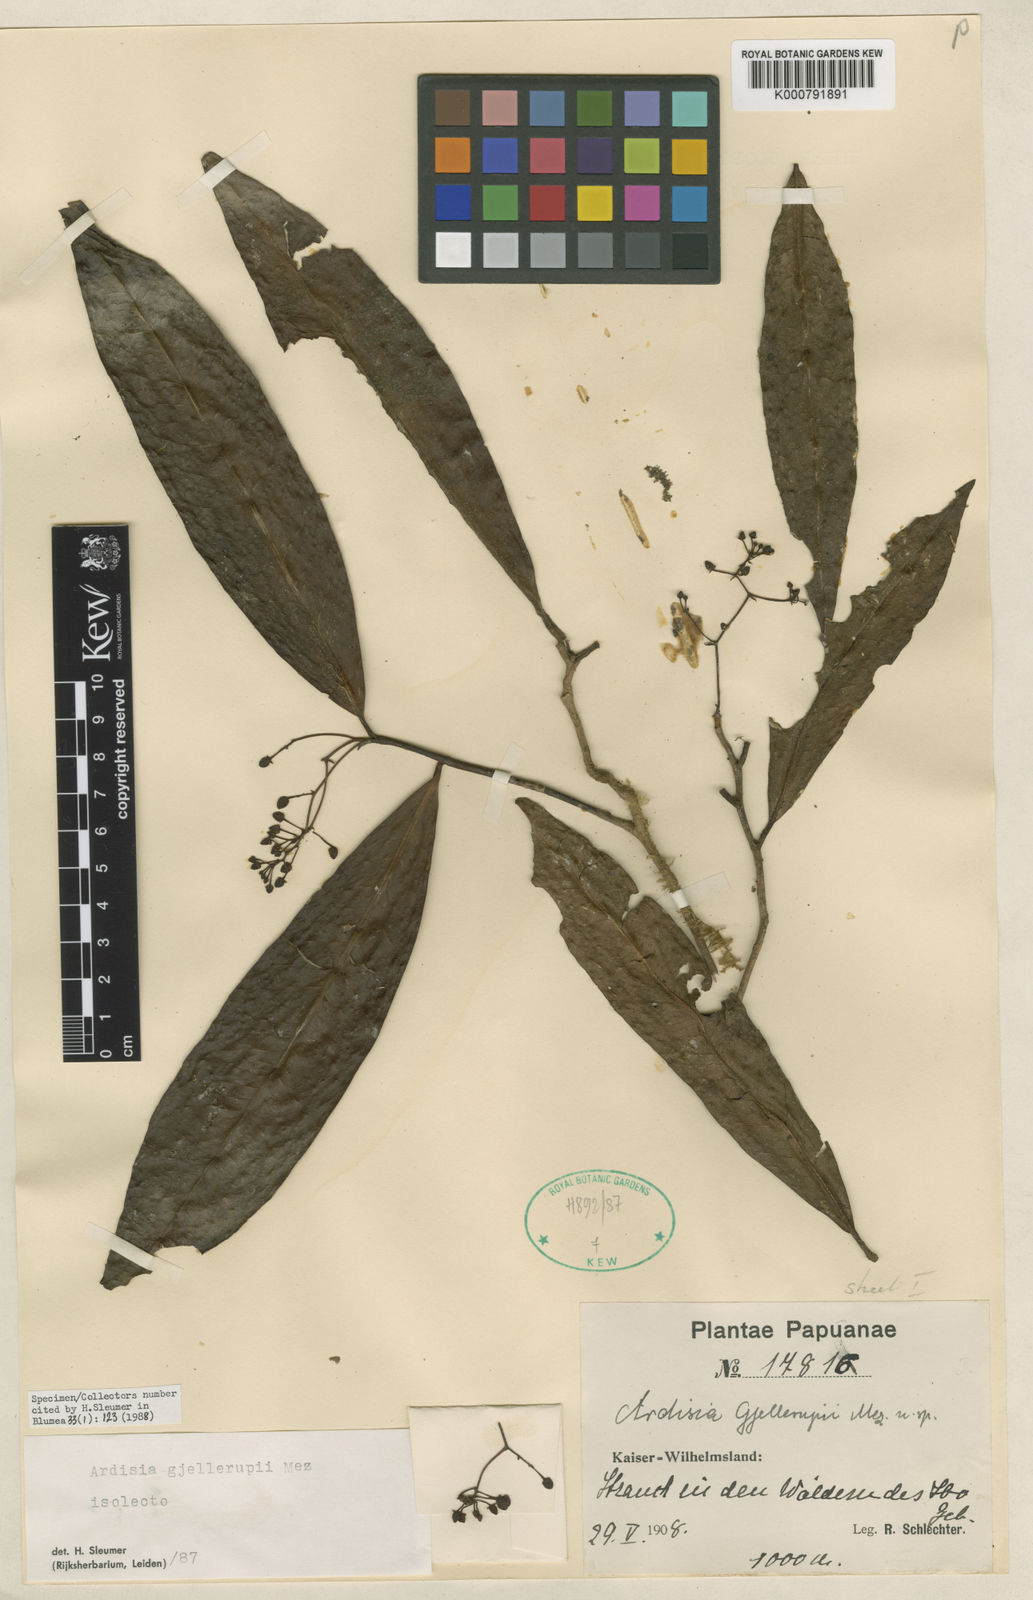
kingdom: Plantae
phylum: Tracheophyta
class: Magnoliopsida
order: Ericales
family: Primulaceae
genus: Ardisia
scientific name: Ardisia gjellerupii
